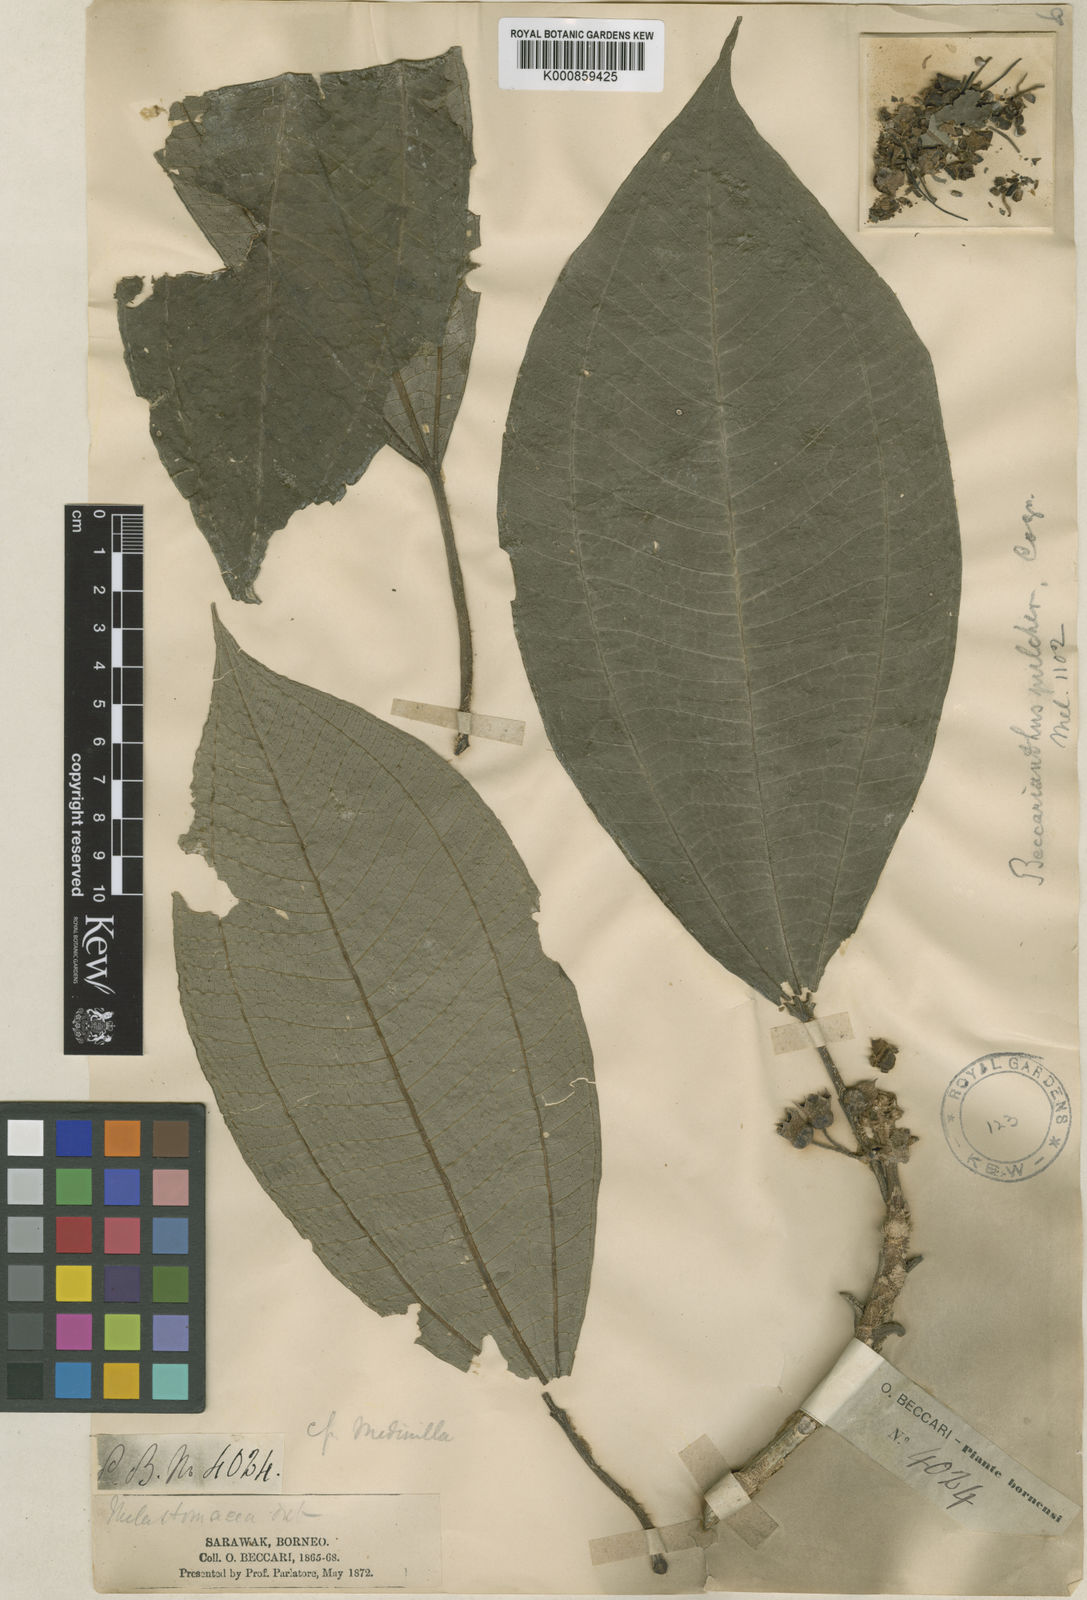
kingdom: Plantae
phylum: Tracheophyta
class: Magnoliopsida
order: Myrtales
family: Melastomataceae
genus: Beccarianthus
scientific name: Beccarianthus pulcher
